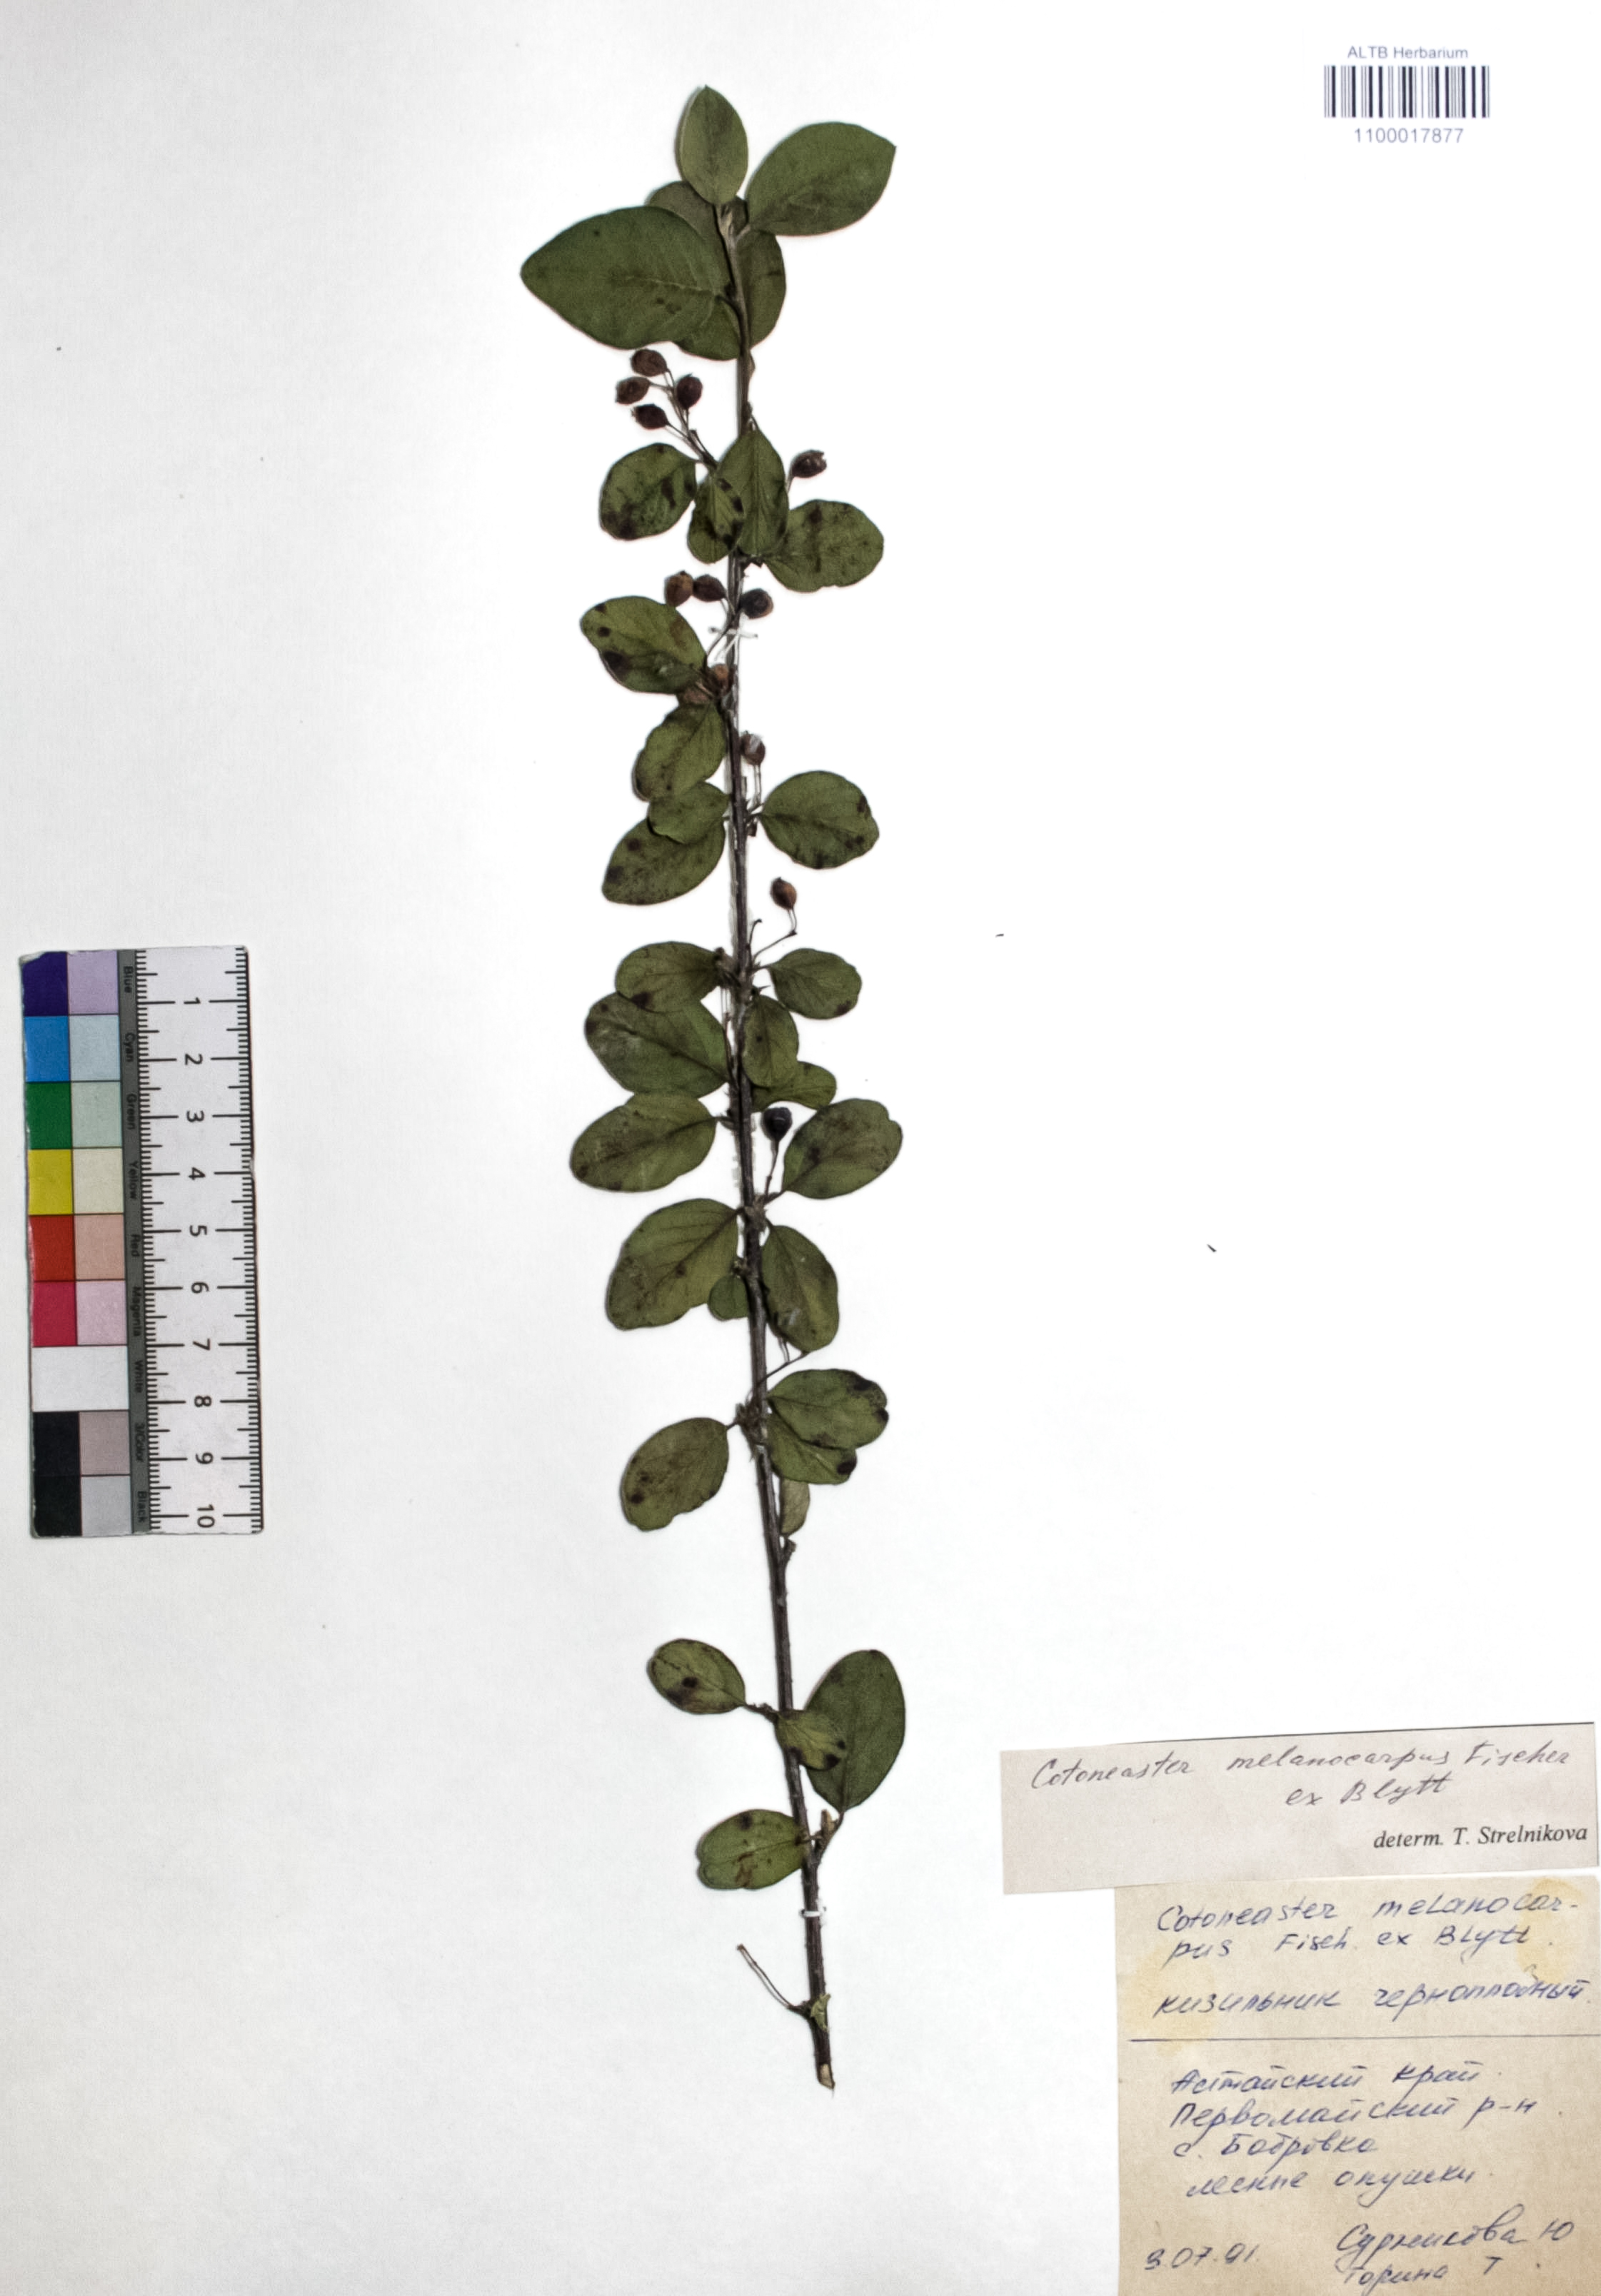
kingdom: Plantae
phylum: Tracheophyta
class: Magnoliopsida
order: Rosales
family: Rosaceae
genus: Cotoneaster
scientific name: Cotoneaster niger
